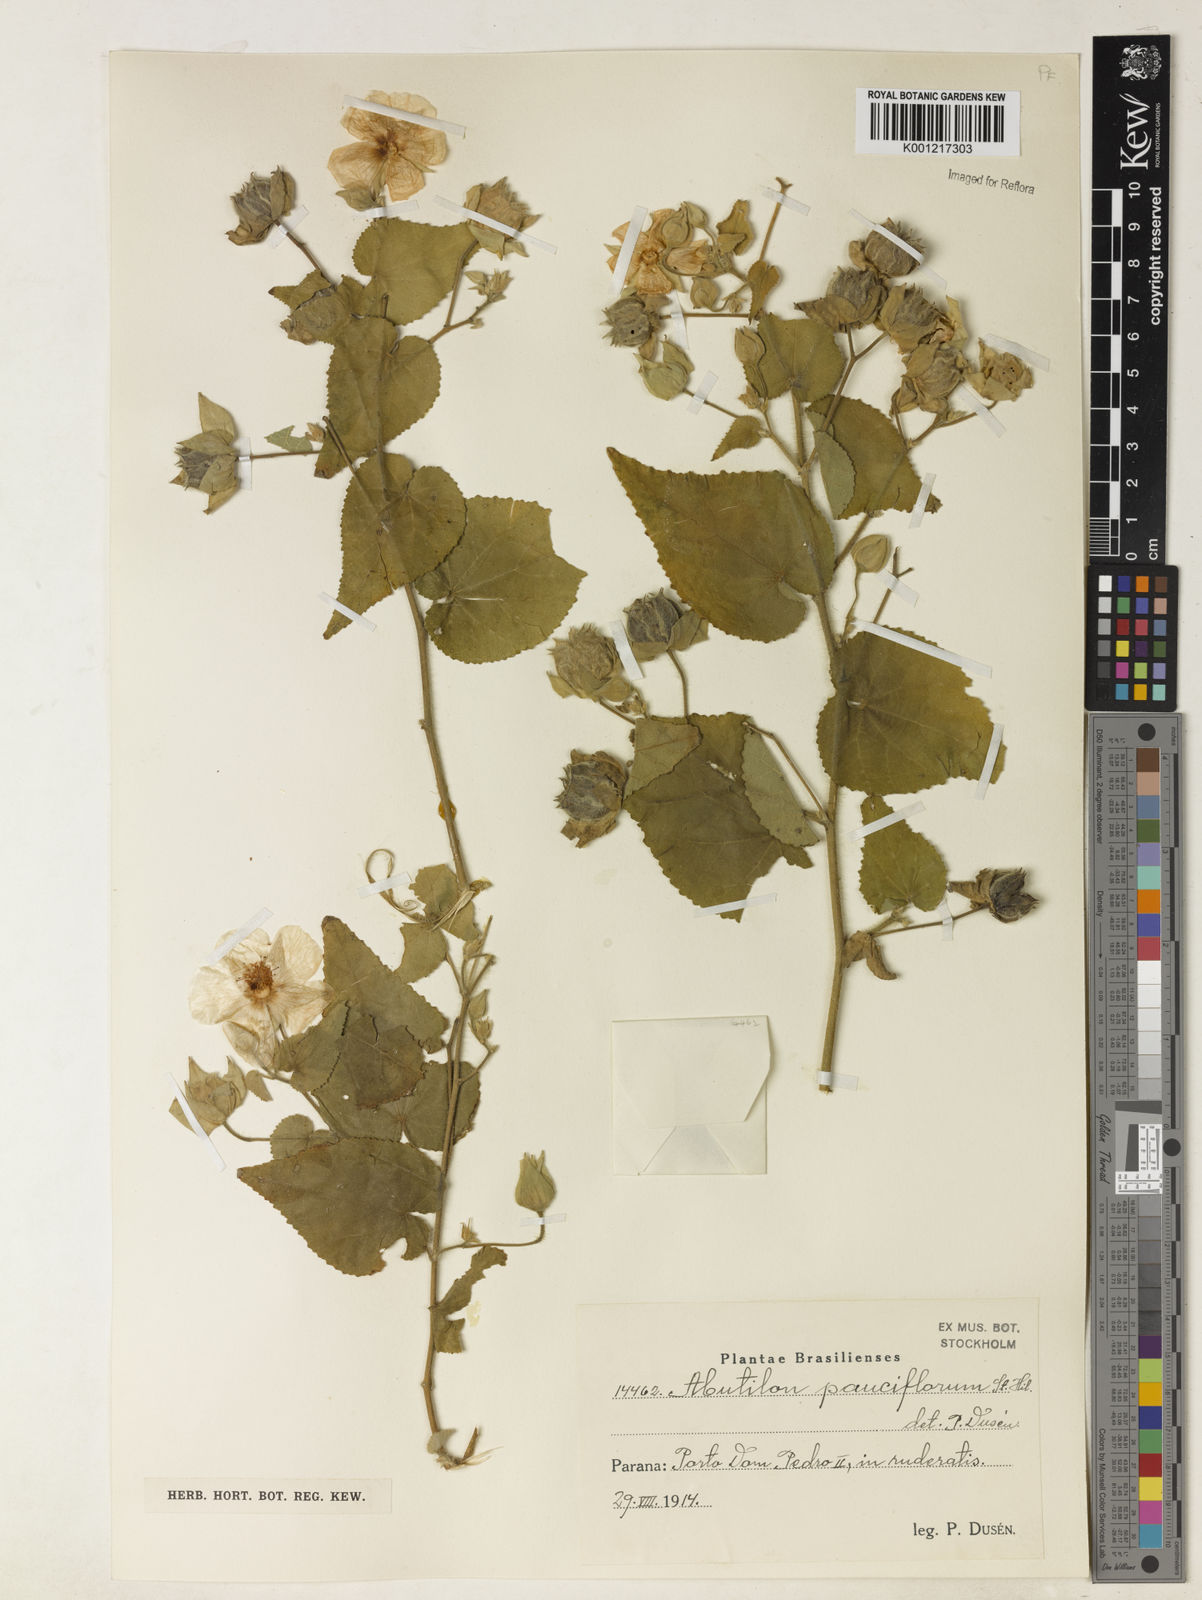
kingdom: Plantae
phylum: Tracheophyta
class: Magnoliopsida
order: Malvales
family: Malvaceae
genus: Callianthe
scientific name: Callianthe pauciflora
